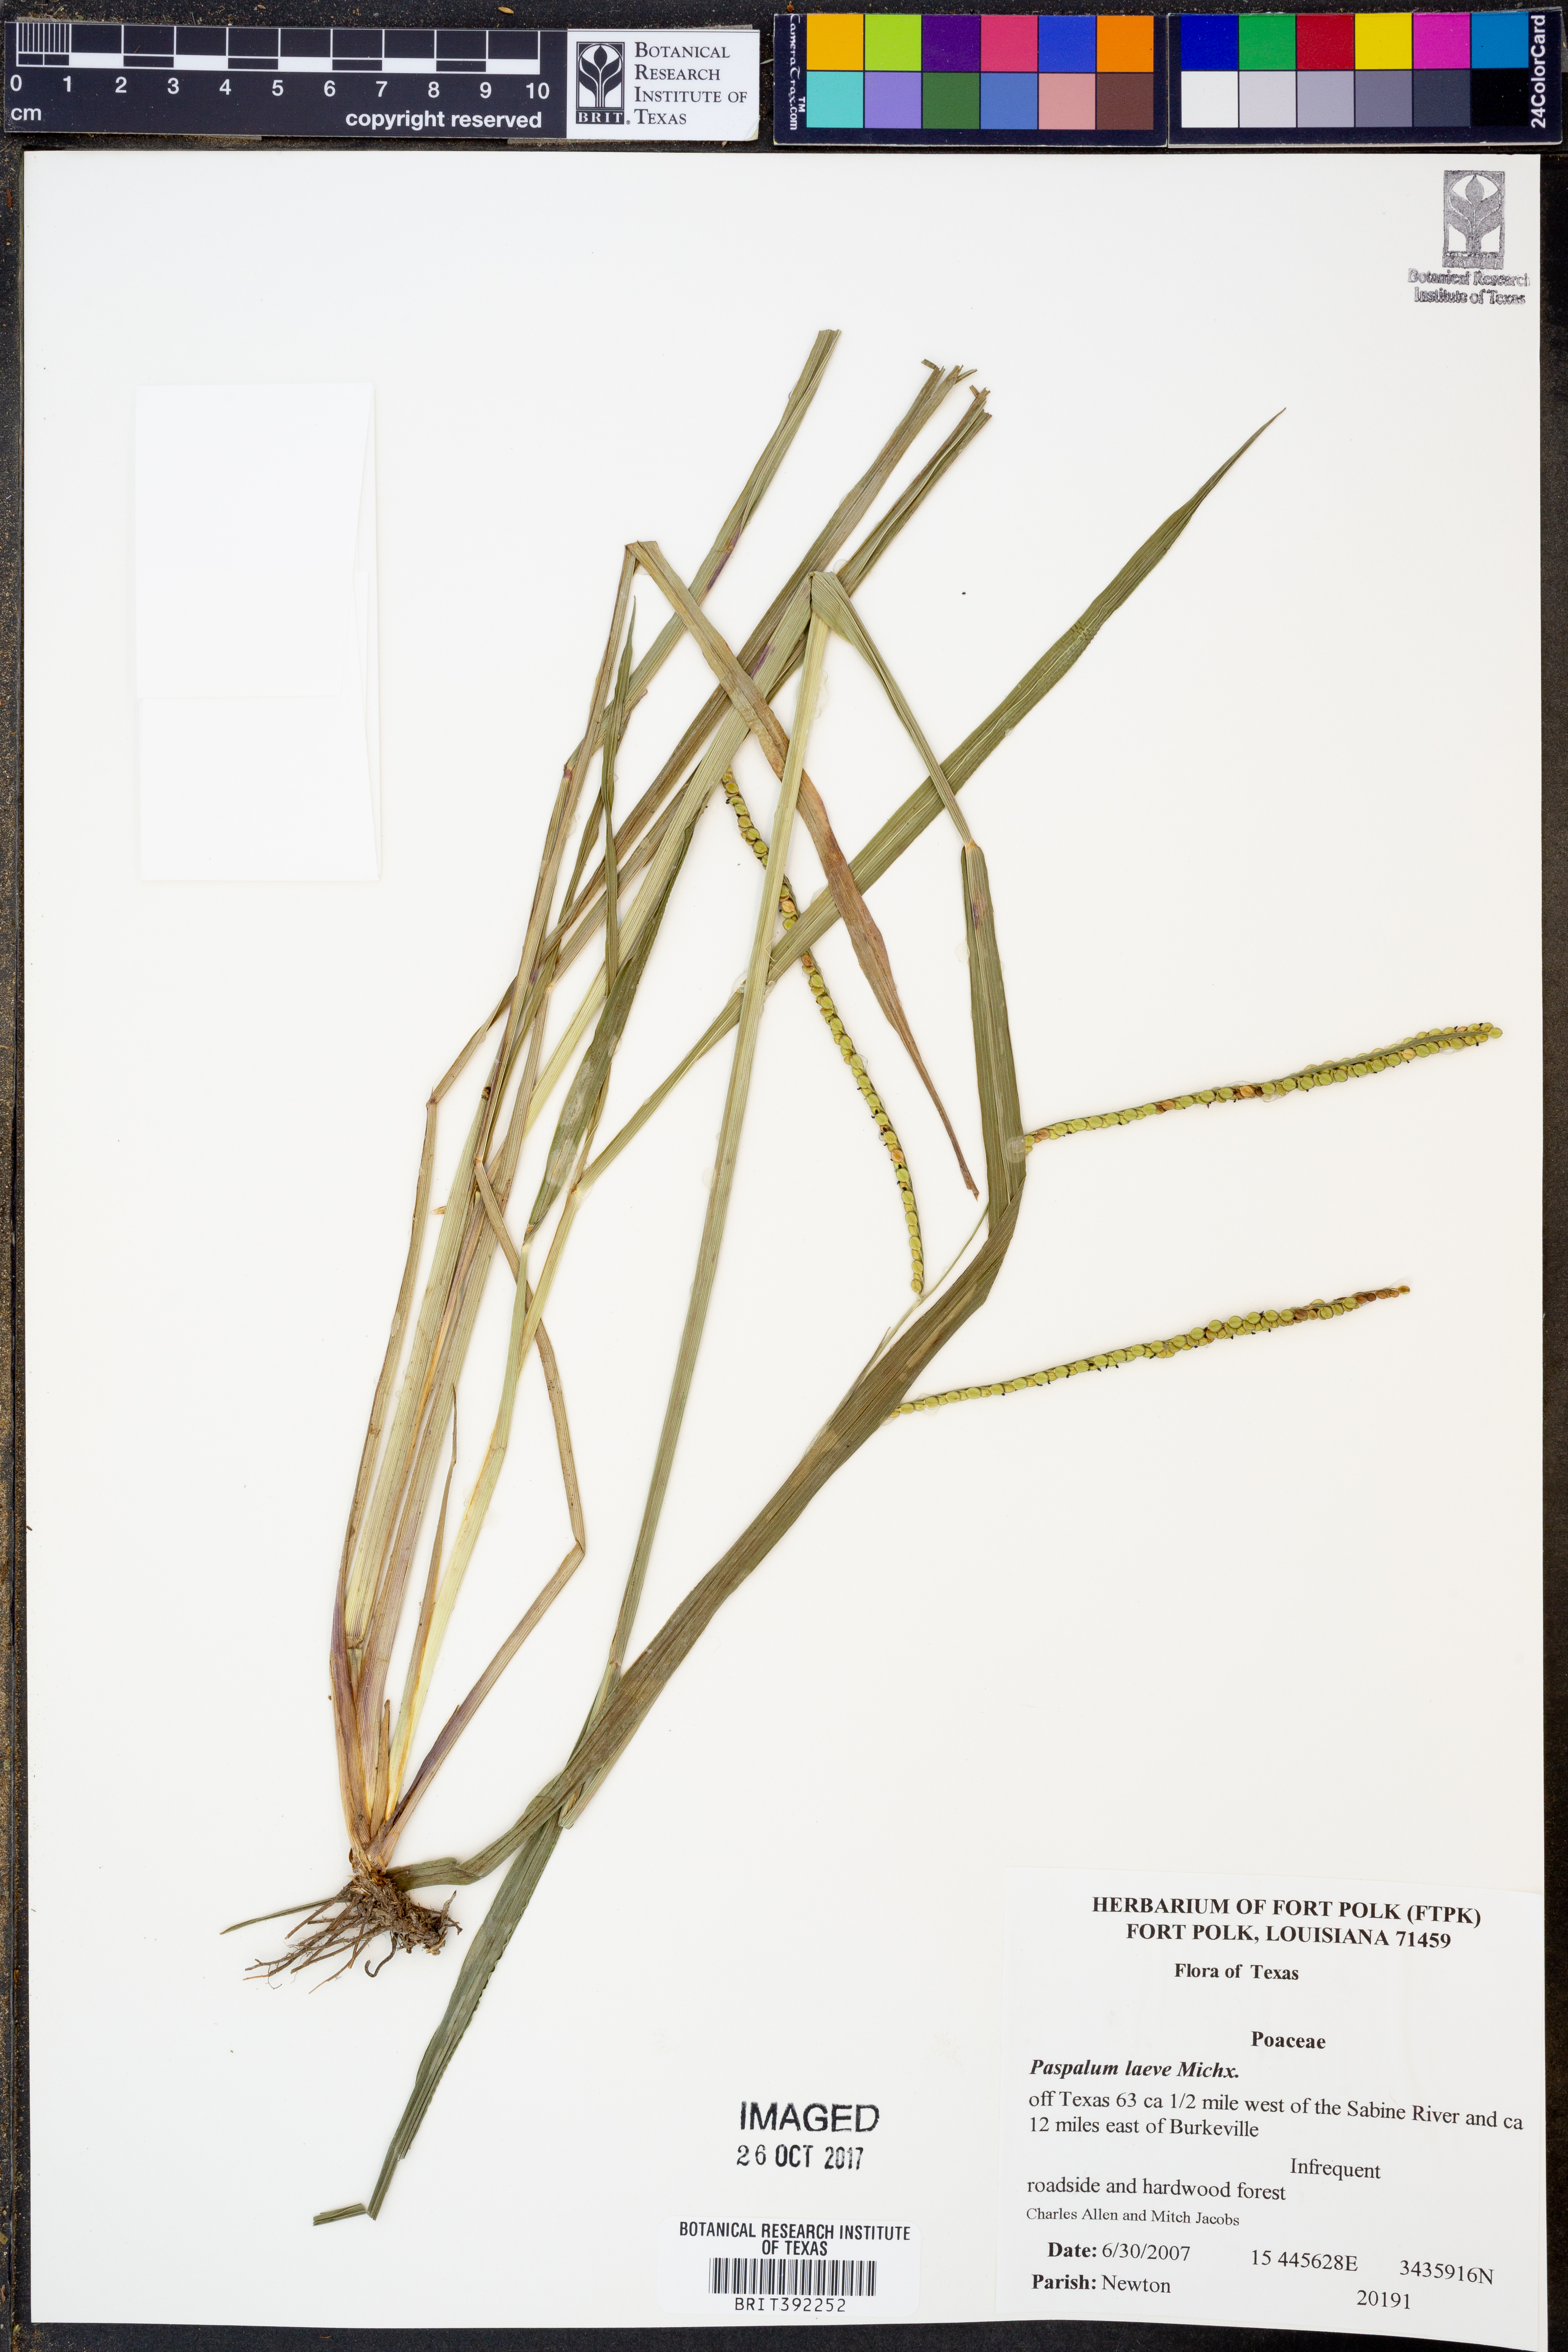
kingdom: Plantae
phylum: Tracheophyta
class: Liliopsida
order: Poales
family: Poaceae
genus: Paspalum
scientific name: Paspalum laeve
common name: Field paspalum
